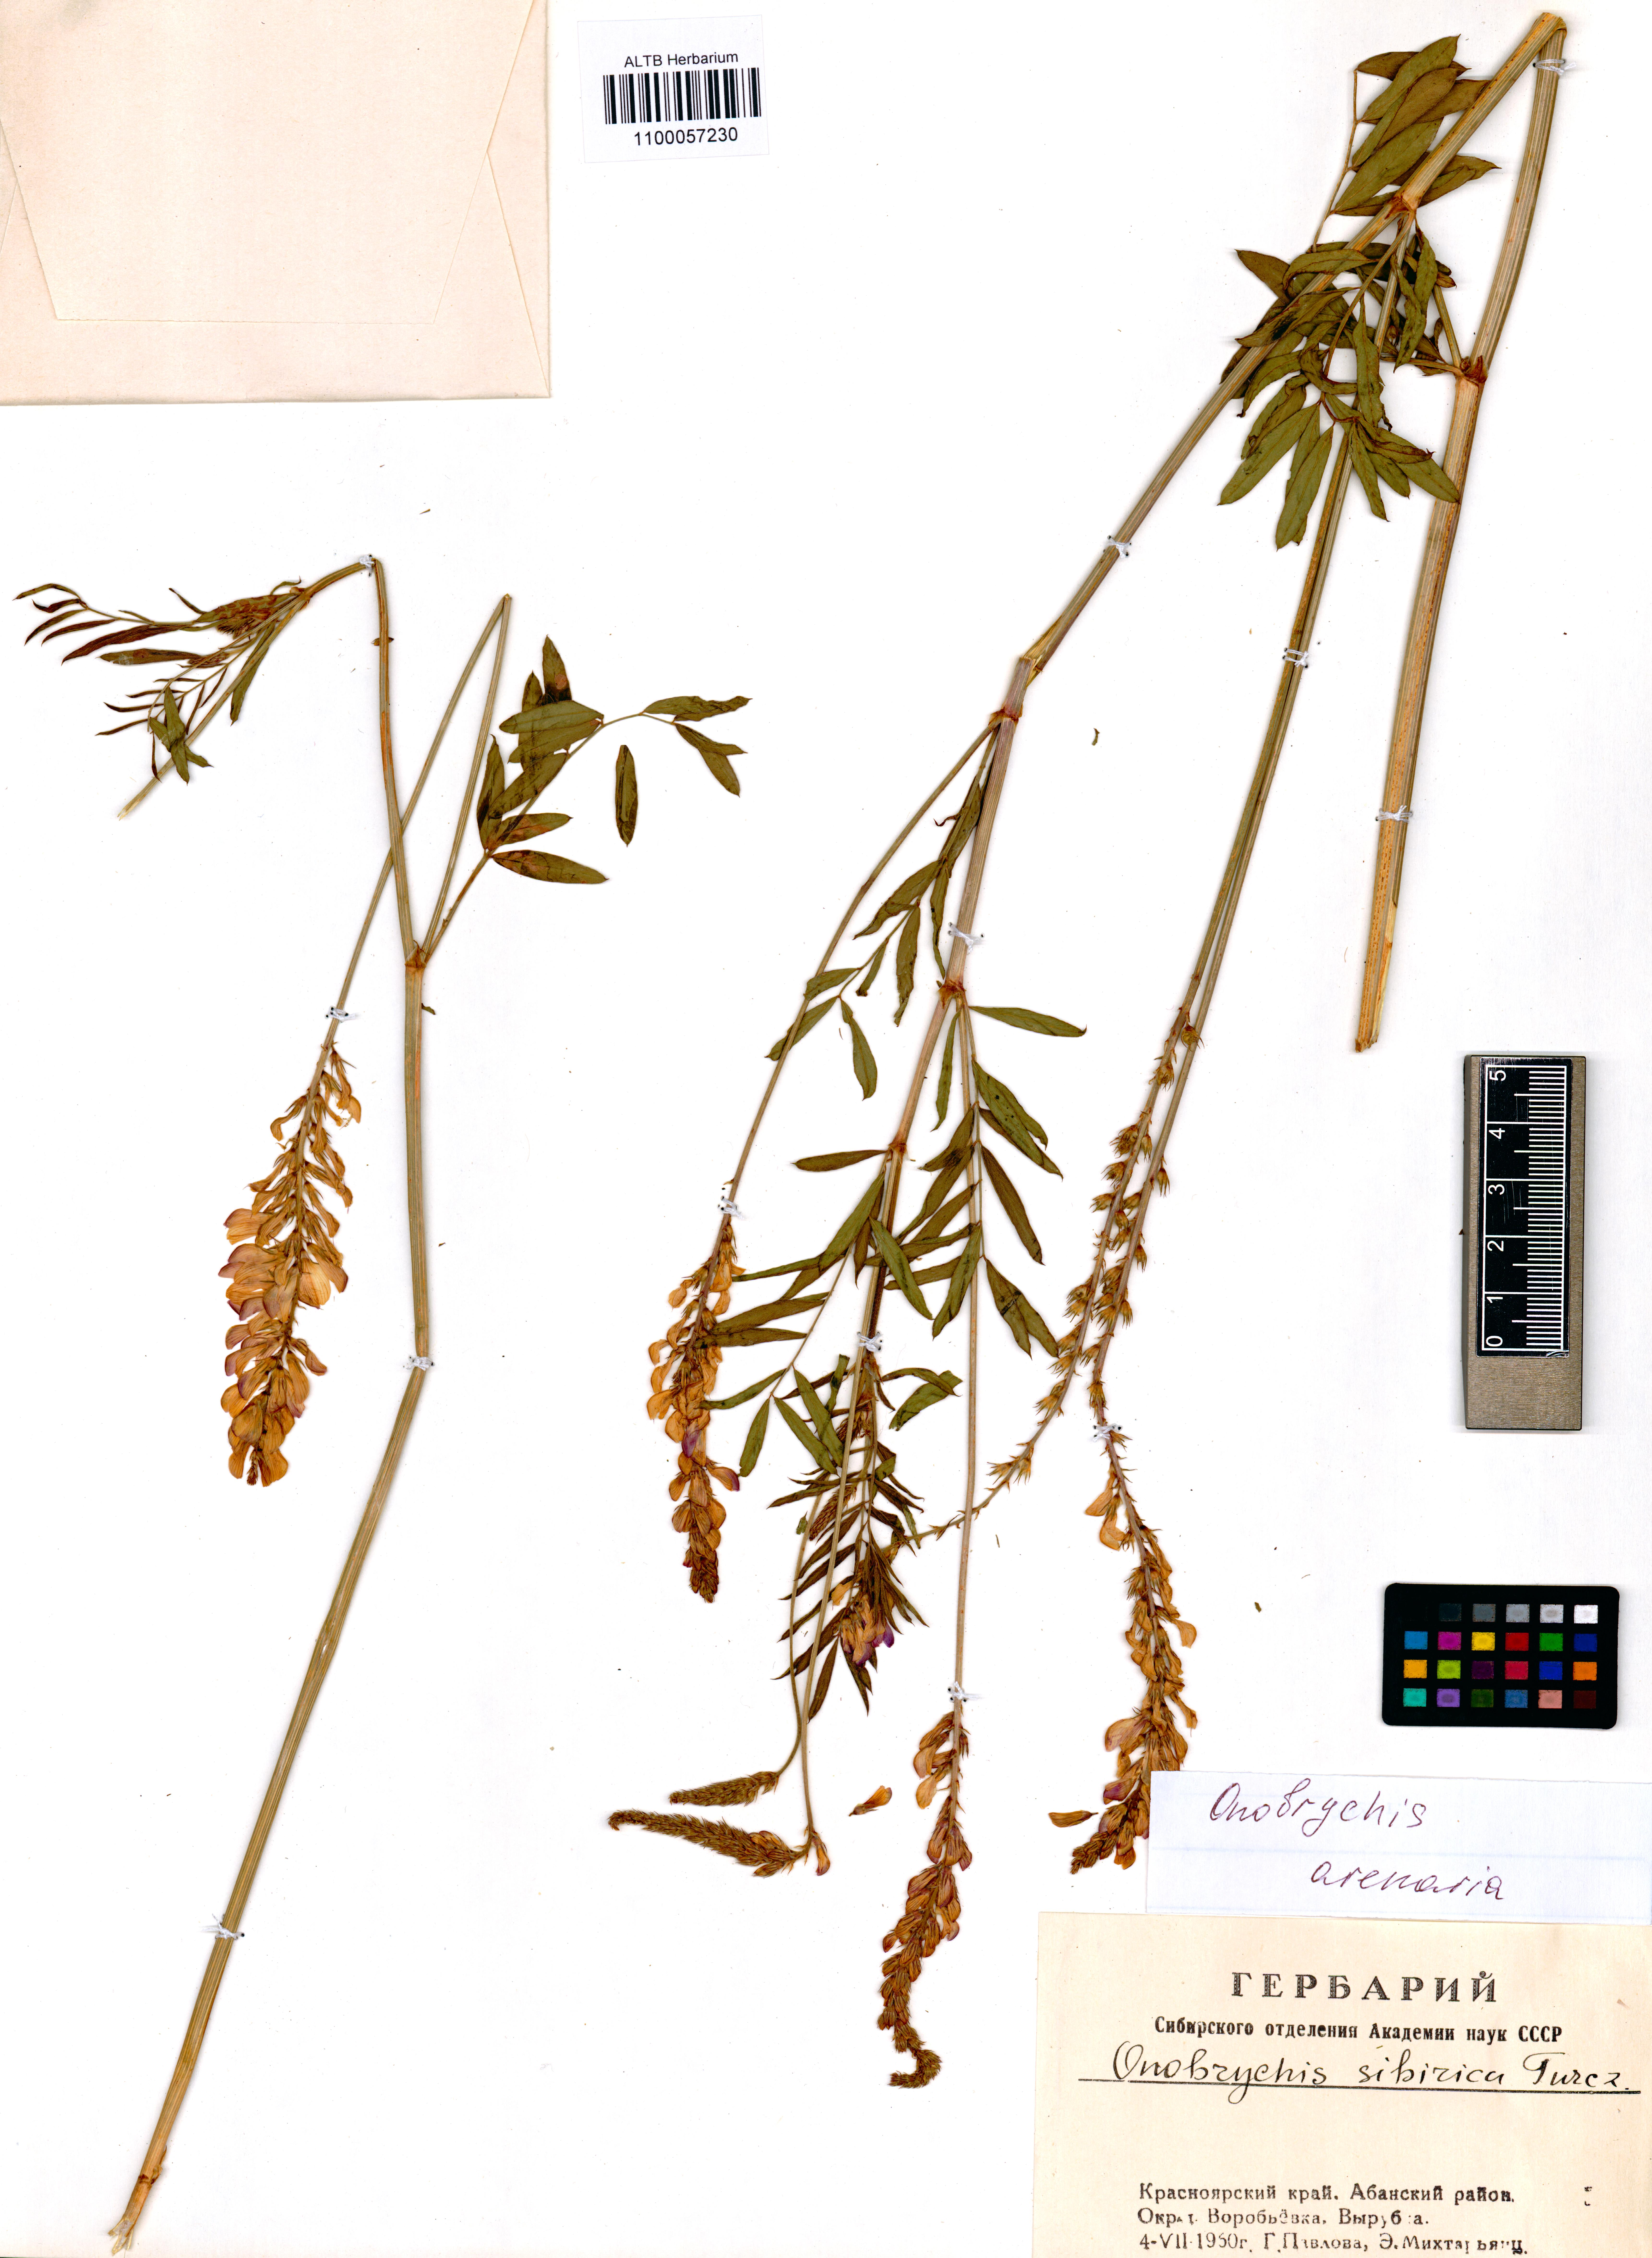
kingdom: Plantae
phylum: Tracheophyta
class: Magnoliopsida
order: Fabales
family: Fabaceae
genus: Onobrychis
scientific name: Onobrychis arenaria
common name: Sand esparcet
